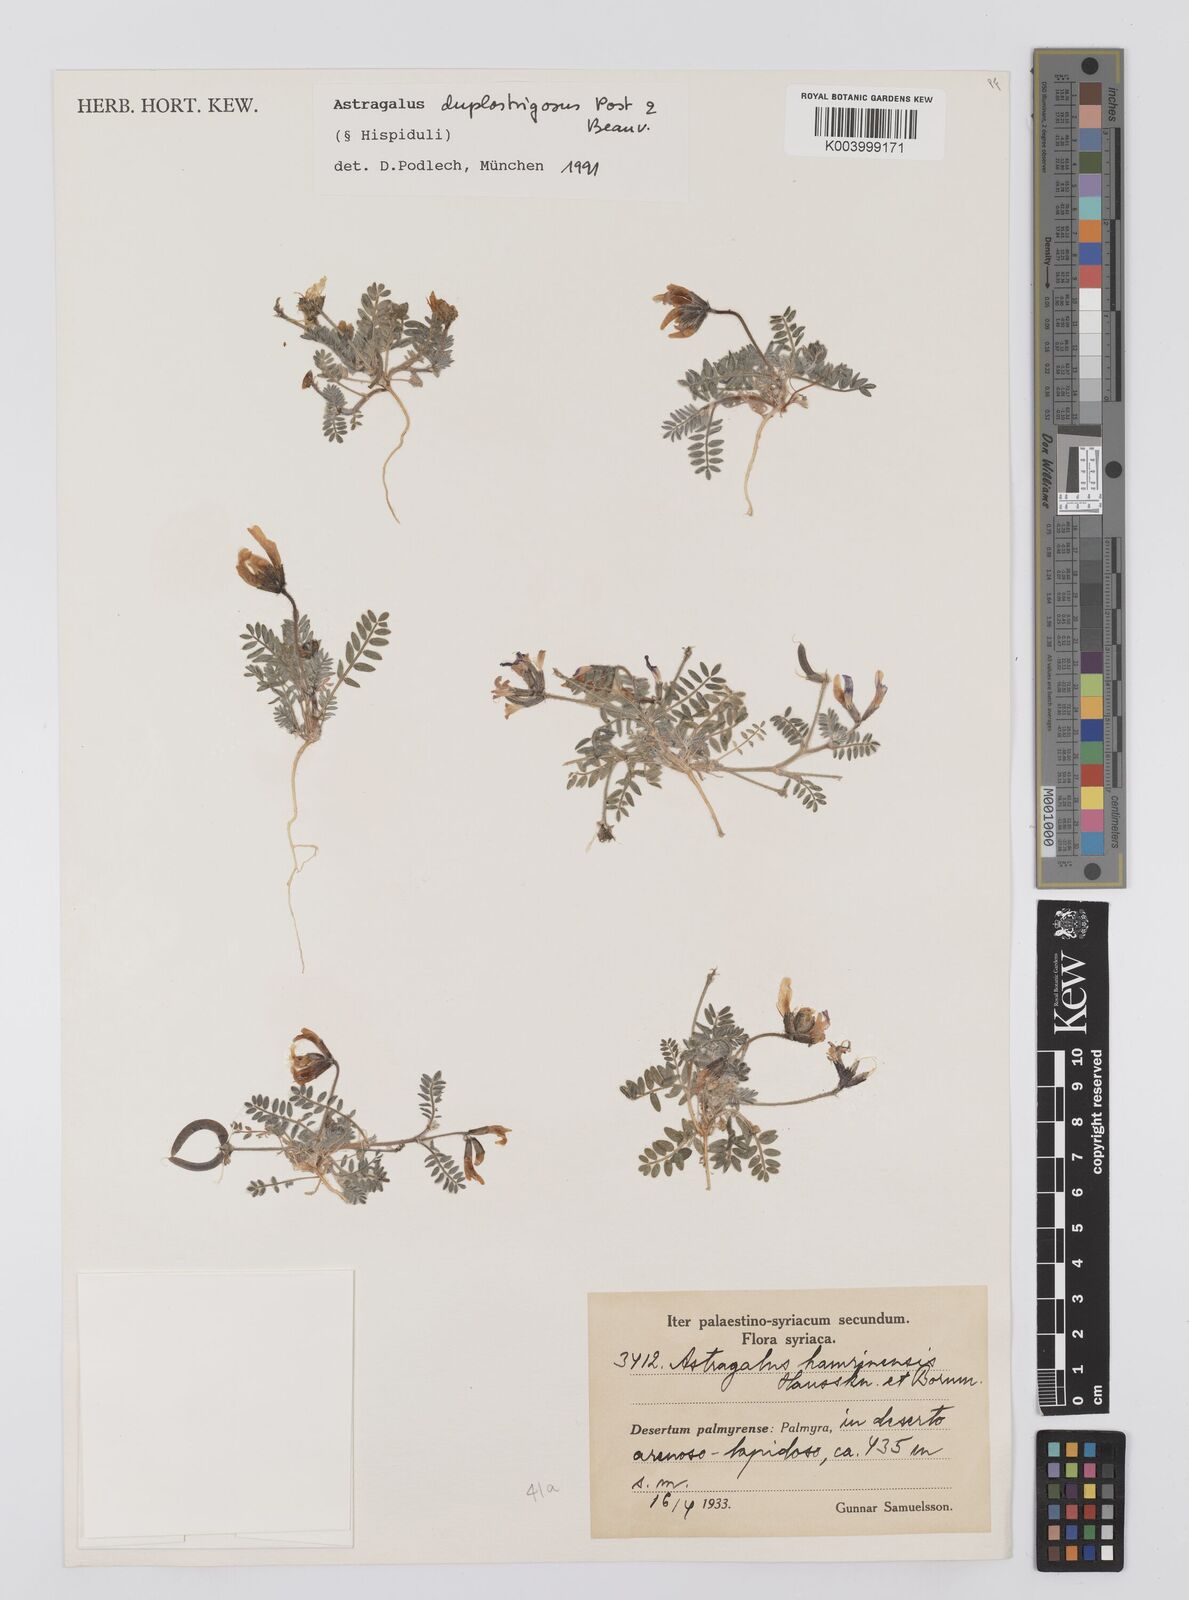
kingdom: Plantae
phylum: Tracheophyta
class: Magnoliopsida
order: Fabales
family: Fabaceae
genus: Astragalus
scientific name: Astragalus duplostrigosus
